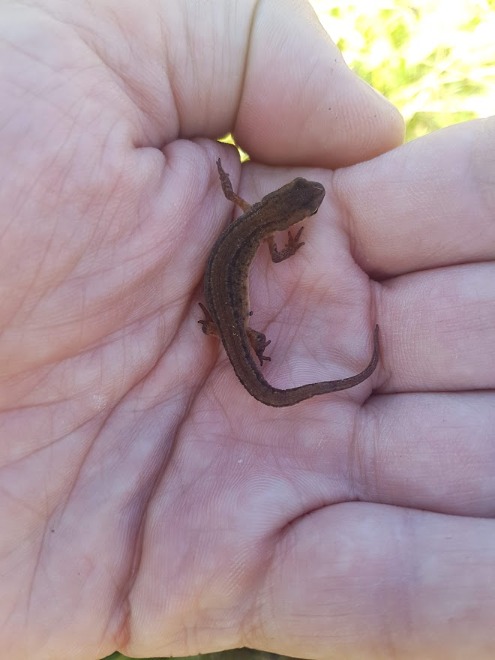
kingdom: Animalia
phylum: Chordata
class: Amphibia
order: Caudata
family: Salamandridae
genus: Lissotriton
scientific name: Lissotriton vulgaris
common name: Lille vandsalamander
